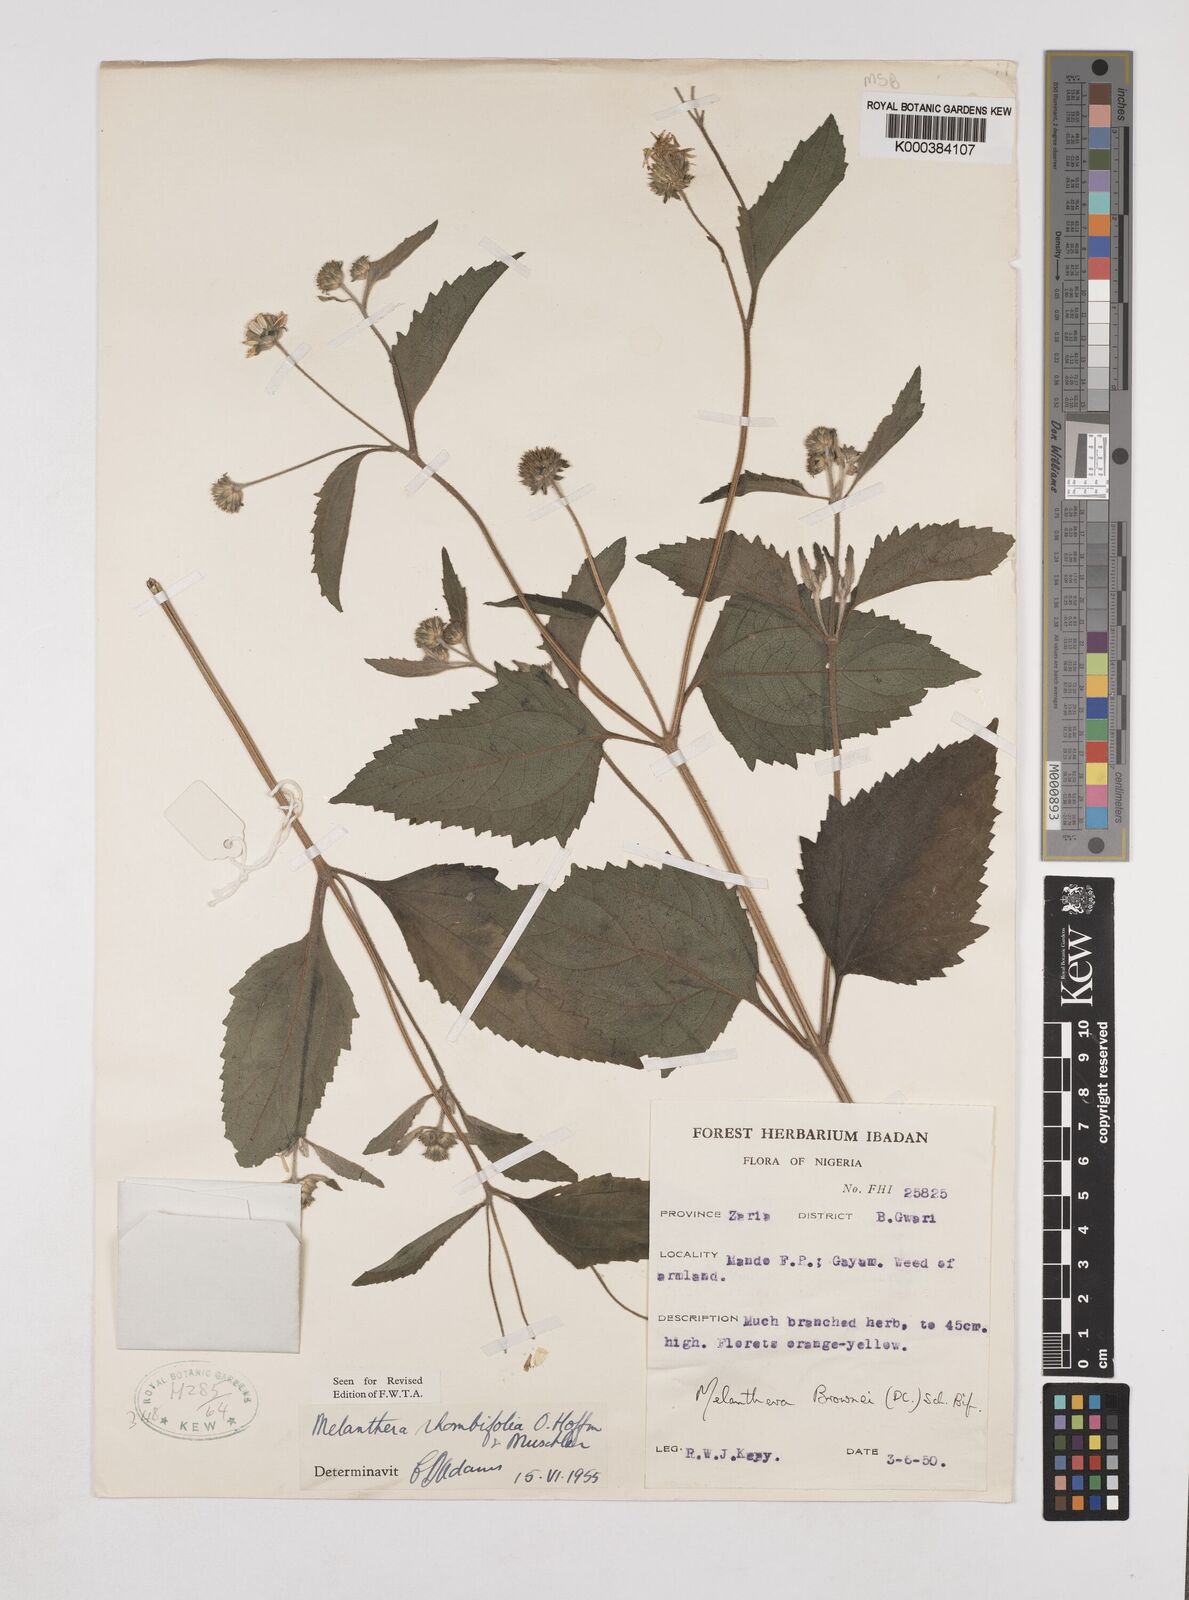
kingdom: Plantae
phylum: Tracheophyta
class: Magnoliopsida
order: Asterales
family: Asteraceae
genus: Lipotriche
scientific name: Lipotriche rhombifolia
